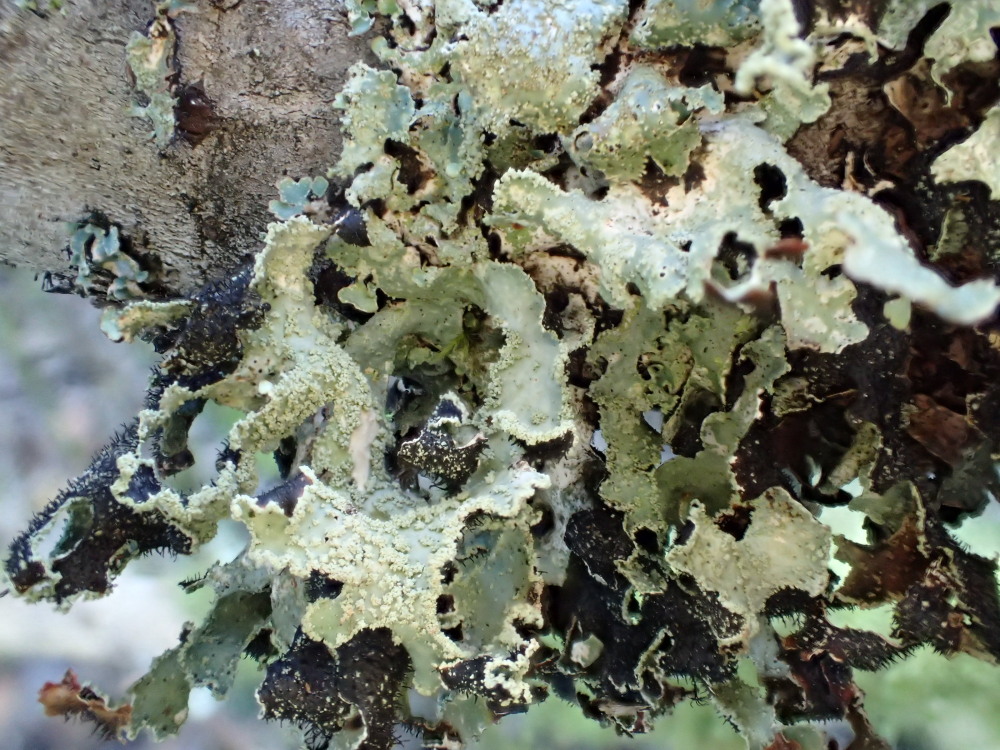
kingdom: Fungi
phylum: Ascomycota
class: Lecanoromycetes
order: Lecanorales
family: Parmeliaceae
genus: Parmelia
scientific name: Parmelia submontana
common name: langlobet skållav
